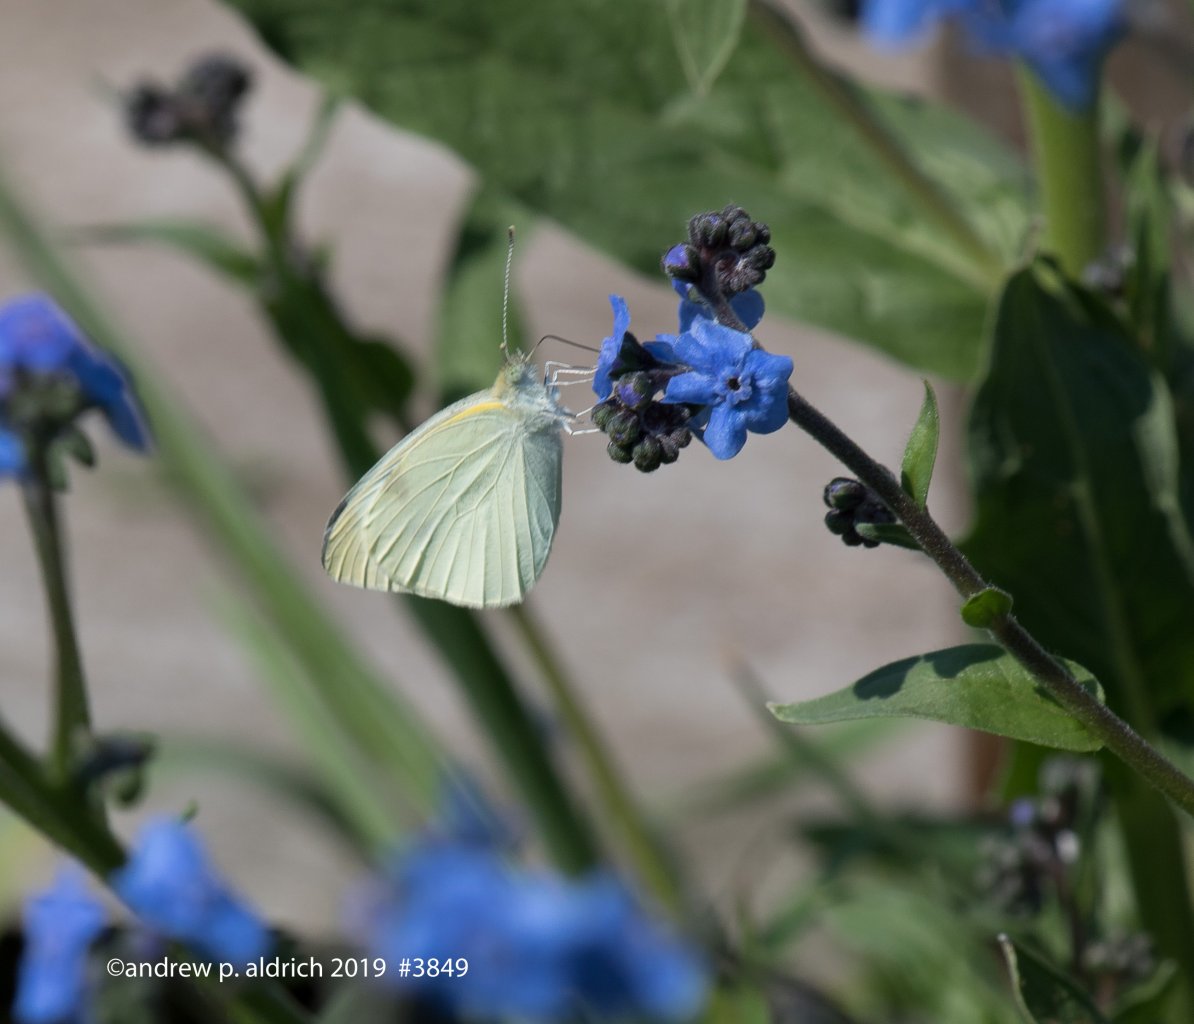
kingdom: Animalia
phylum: Arthropoda
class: Insecta
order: Lepidoptera
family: Pieridae
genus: Pieris
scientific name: Pieris rapae
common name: Cabbage White
